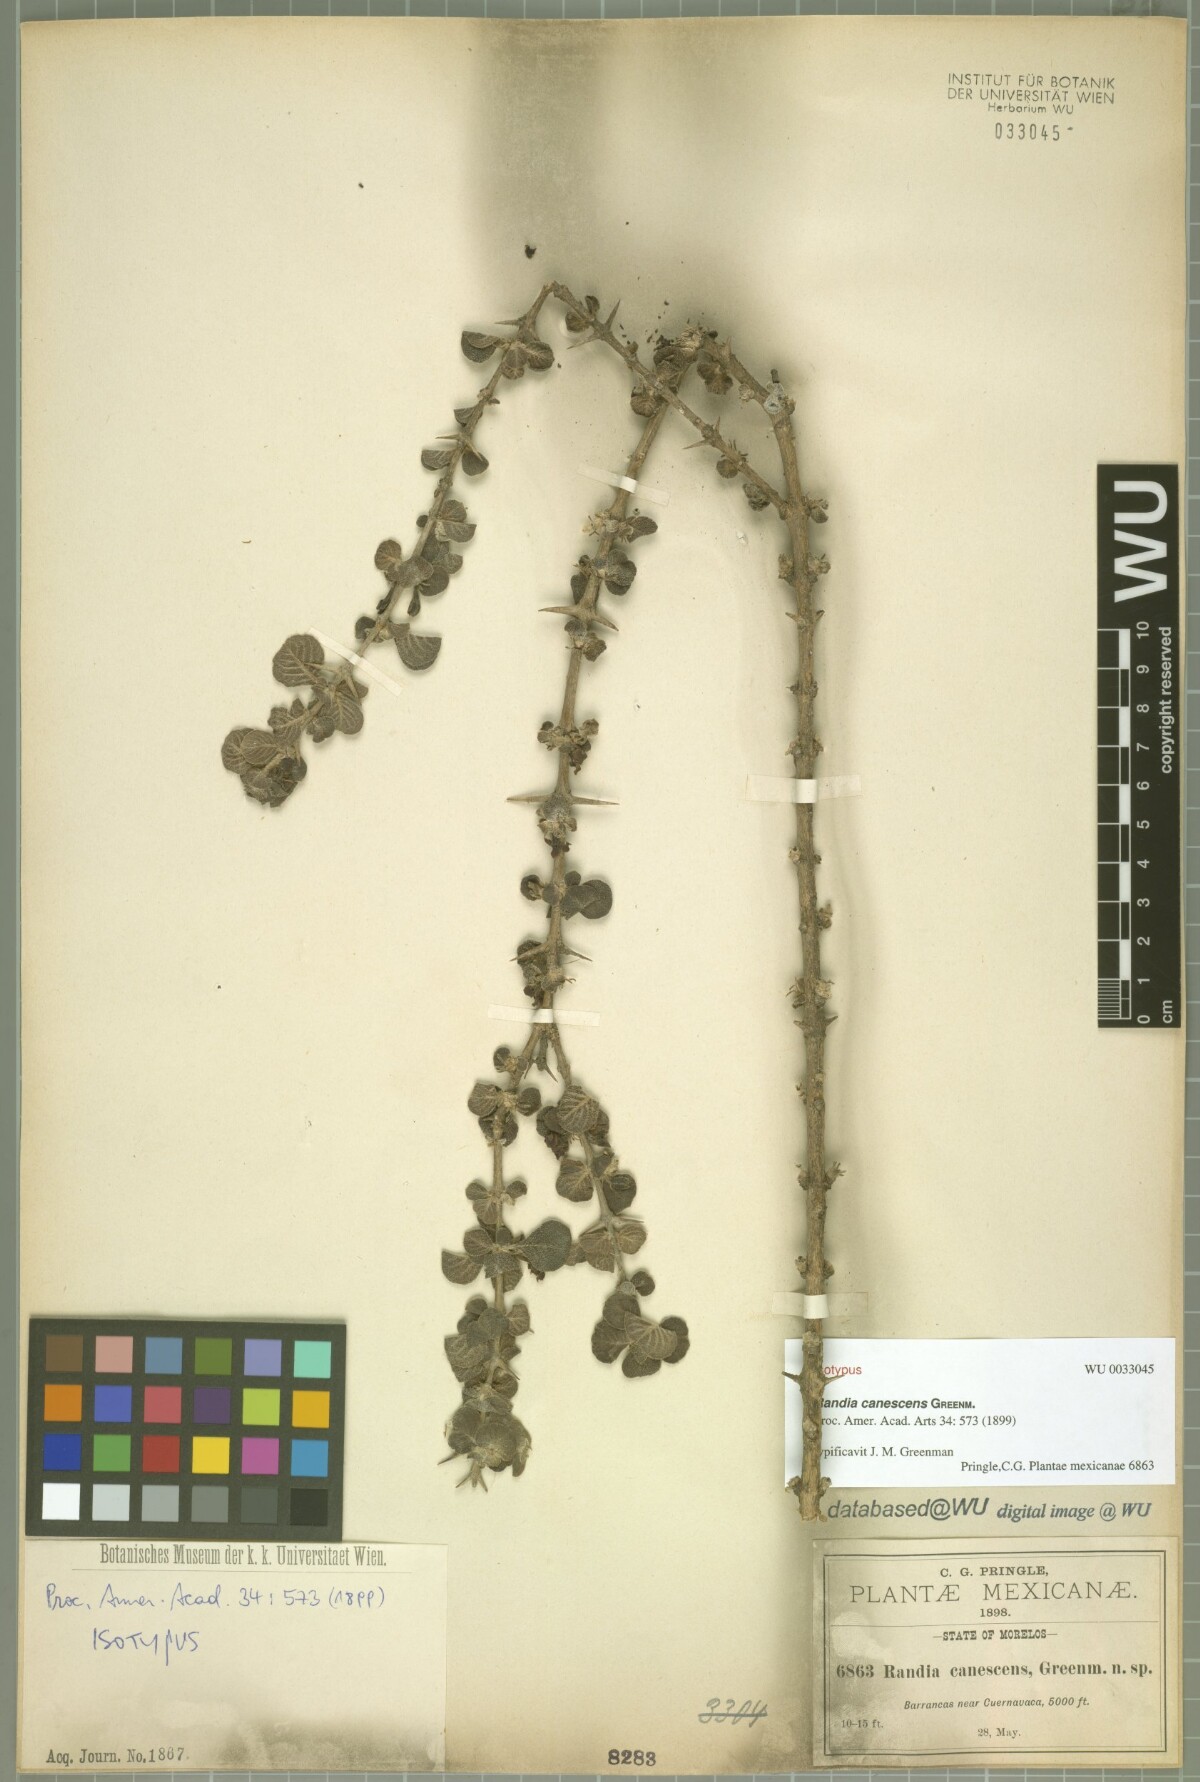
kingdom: Plantae
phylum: Tracheophyta
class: Magnoliopsida
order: Gentianales
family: Rubiaceae
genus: Randia
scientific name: Randia canescens
